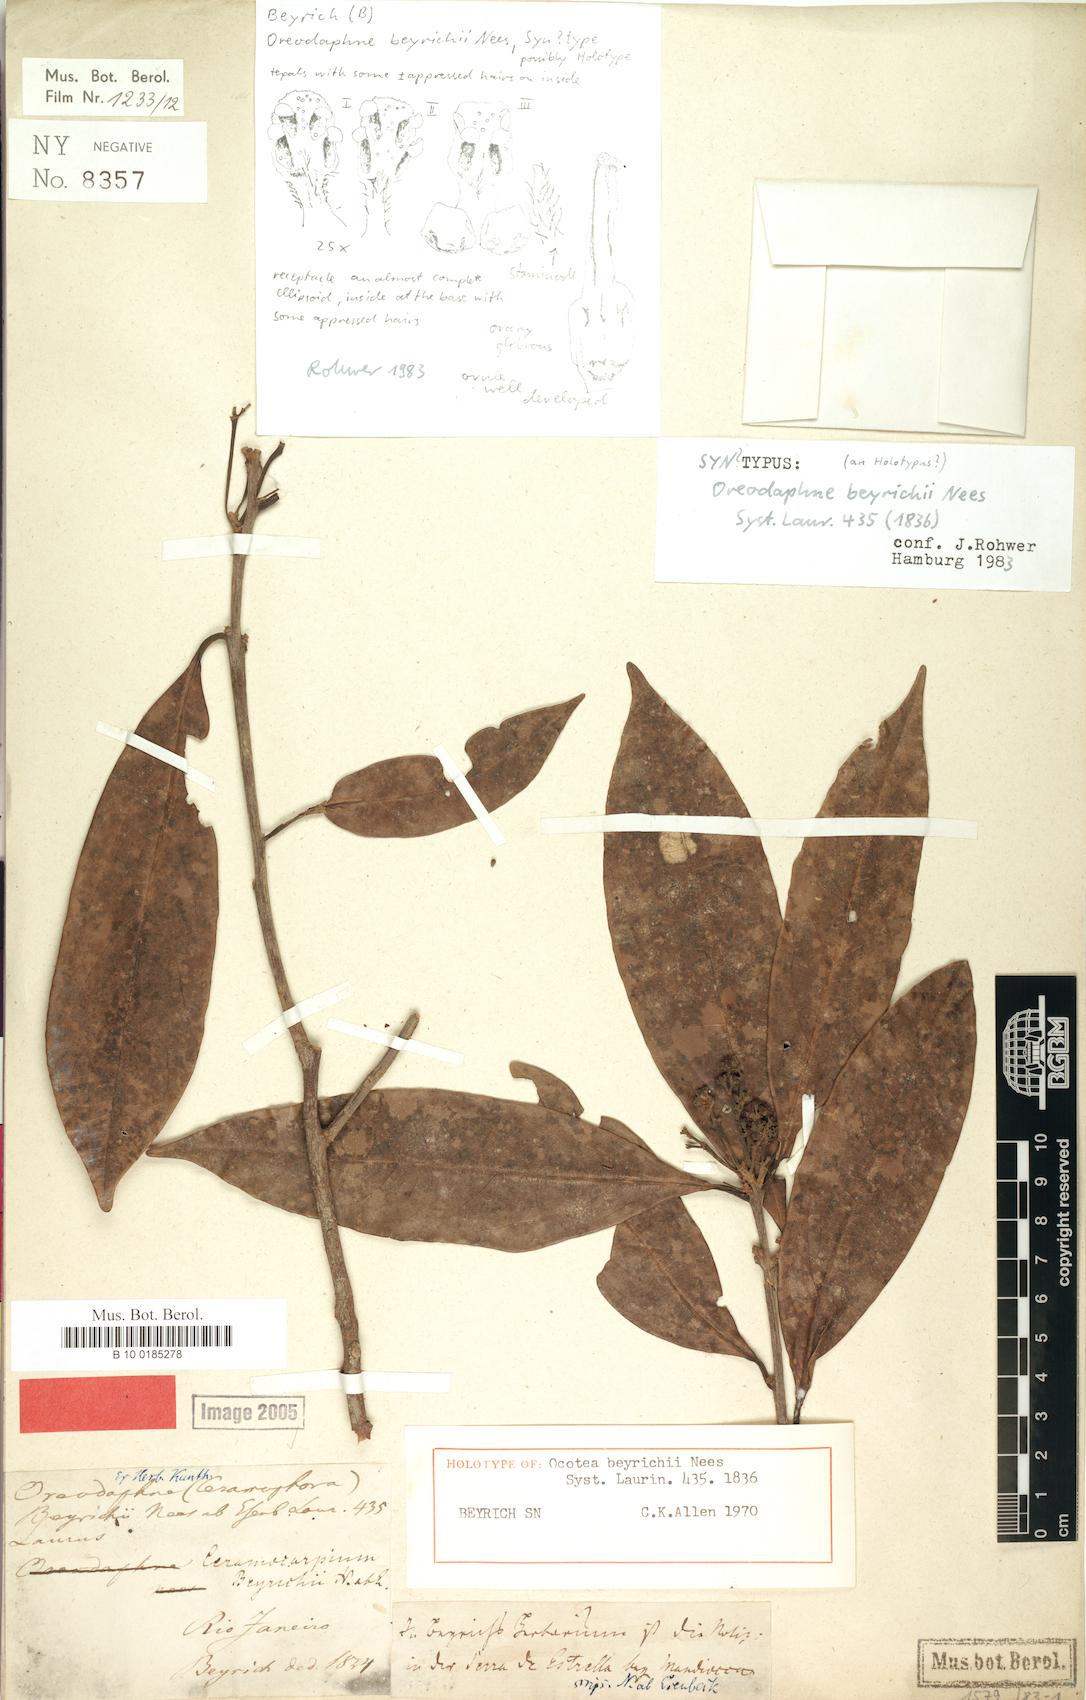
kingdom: Plantae
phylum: Tracheophyta
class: Magnoliopsida
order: Laurales
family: Lauraceae
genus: Ocotea
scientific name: Ocotea beyrichii
